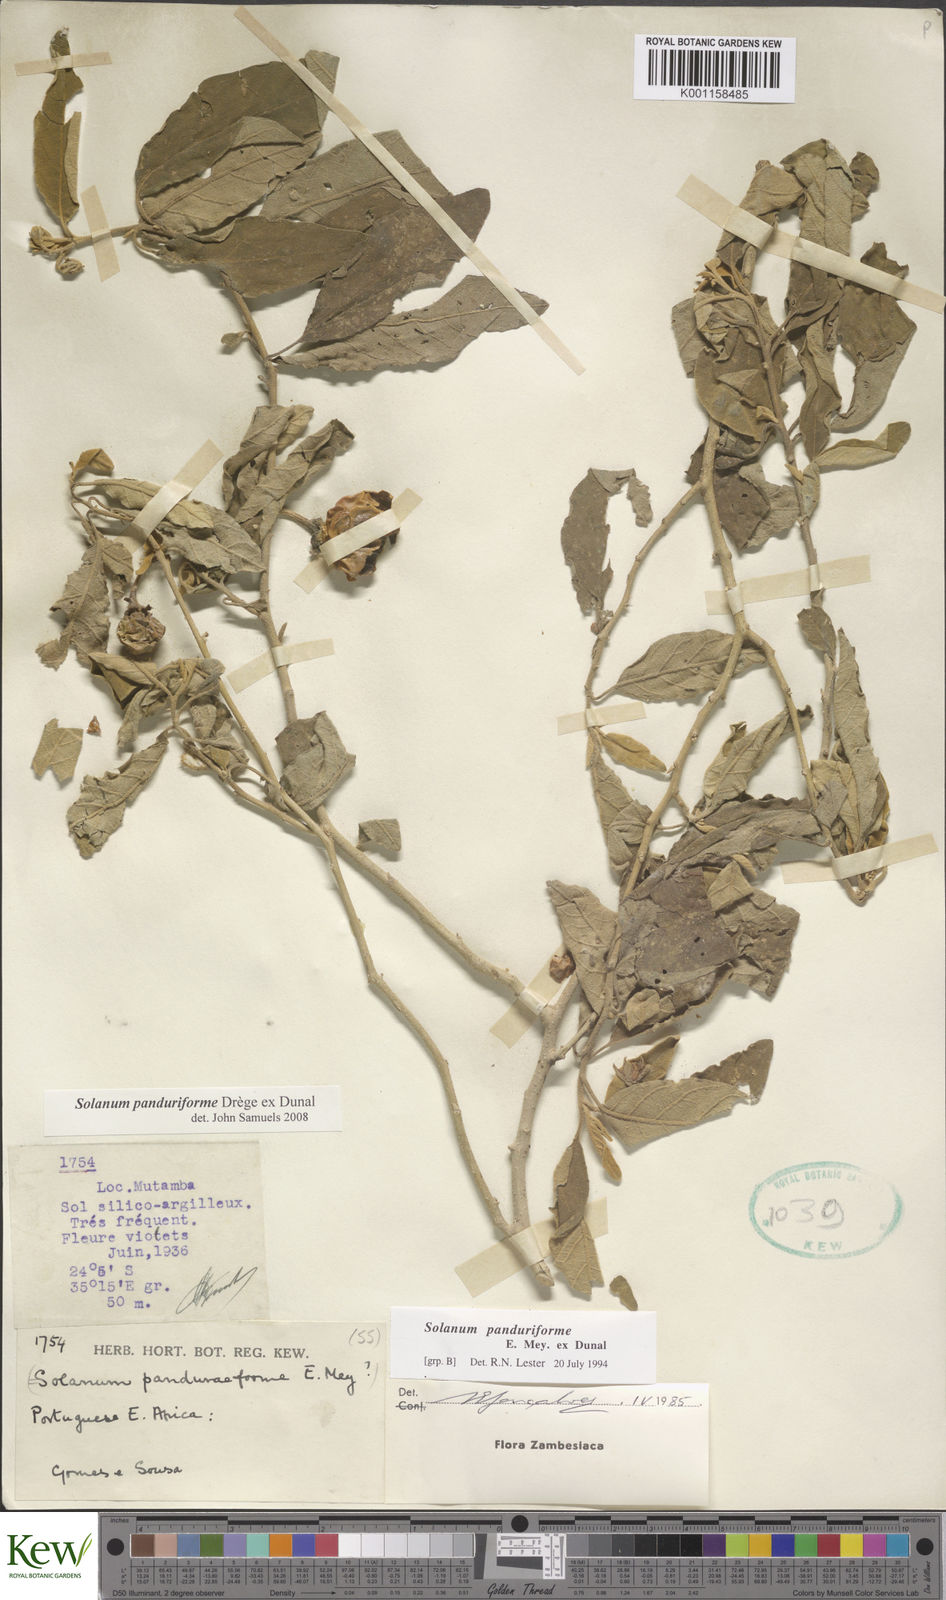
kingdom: Plantae
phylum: Tracheophyta
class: Magnoliopsida
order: Solanales
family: Solanaceae
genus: Solanum
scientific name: Solanum campylacanthum
